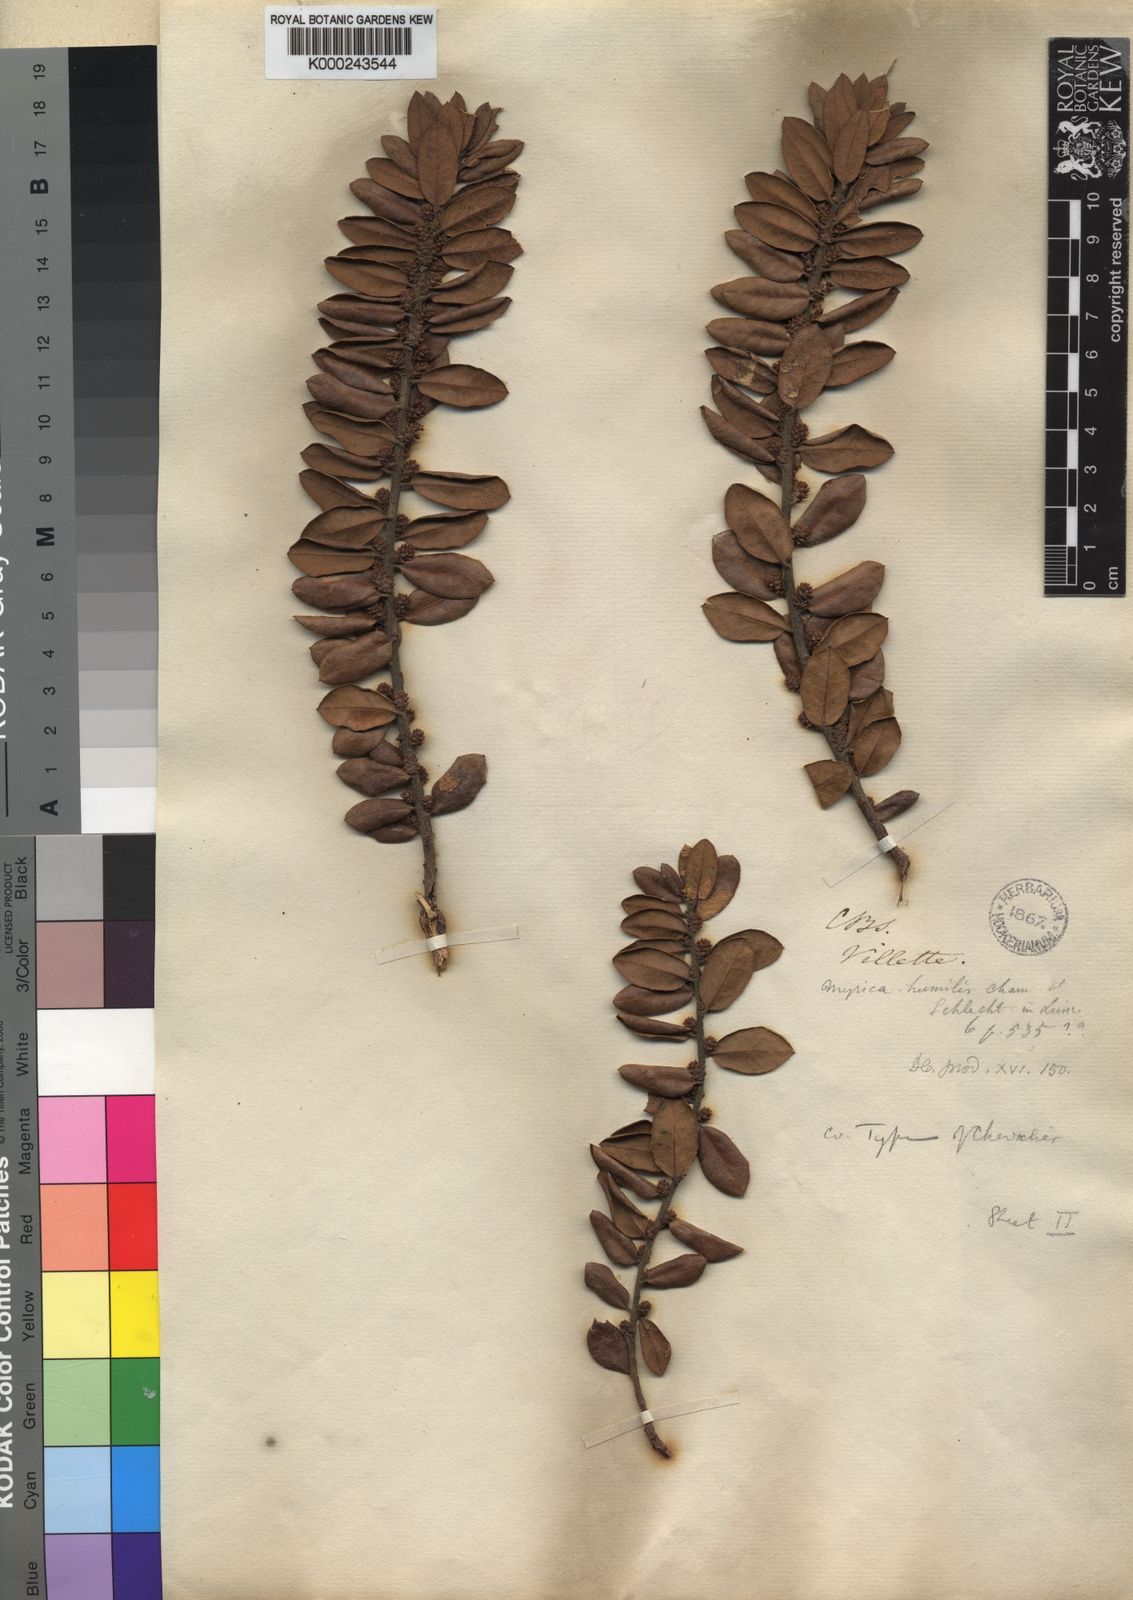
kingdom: Plantae
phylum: Tracheophyta
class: Magnoliopsida
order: Fagales
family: Myricaceae
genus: Morella
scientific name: Morella humilis
